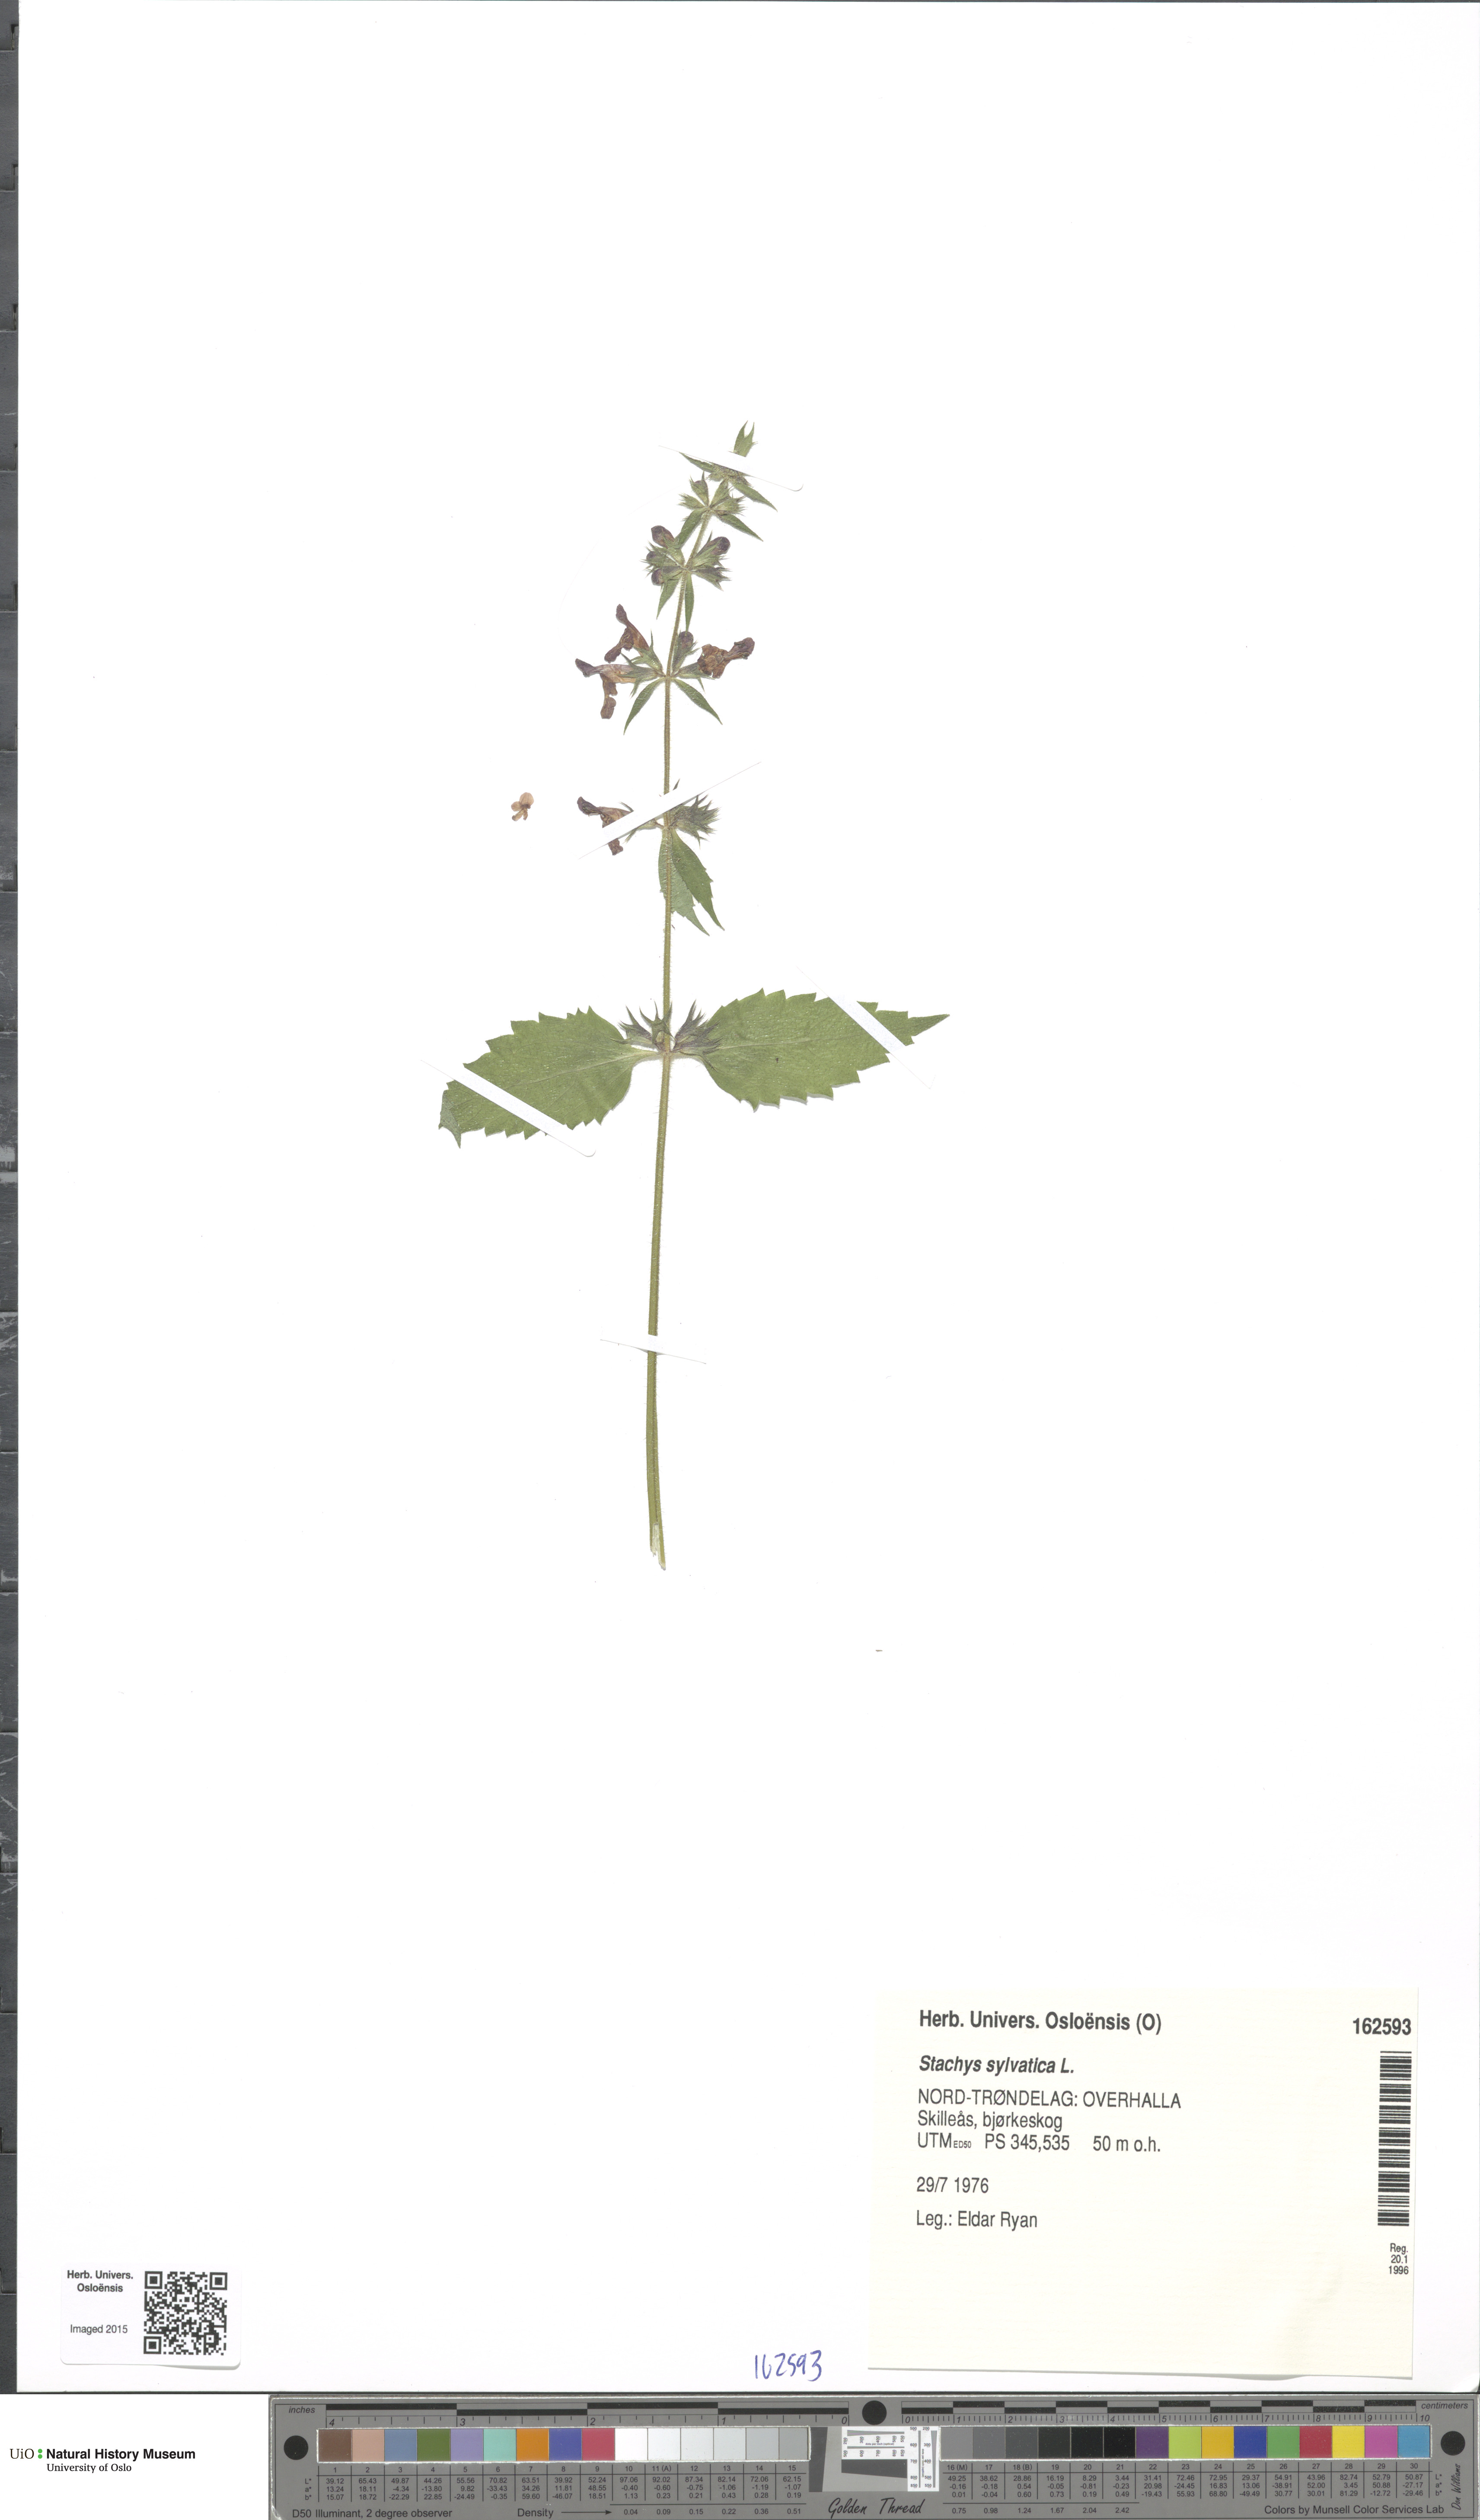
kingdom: Plantae
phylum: Tracheophyta
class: Magnoliopsida
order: Lamiales
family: Lamiaceae
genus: Stachys
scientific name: Stachys sylvatica
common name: Hedge woundwort
